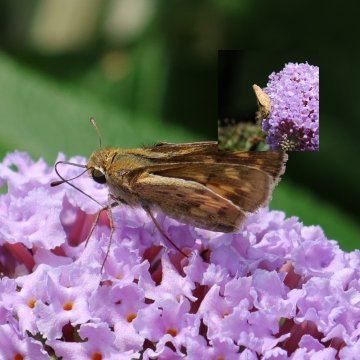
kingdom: Animalia
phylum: Arthropoda
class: Insecta
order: Lepidoptera
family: Hesperiidae
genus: Hylephila
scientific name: Hylephila phyleus
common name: Fiery Skipper
